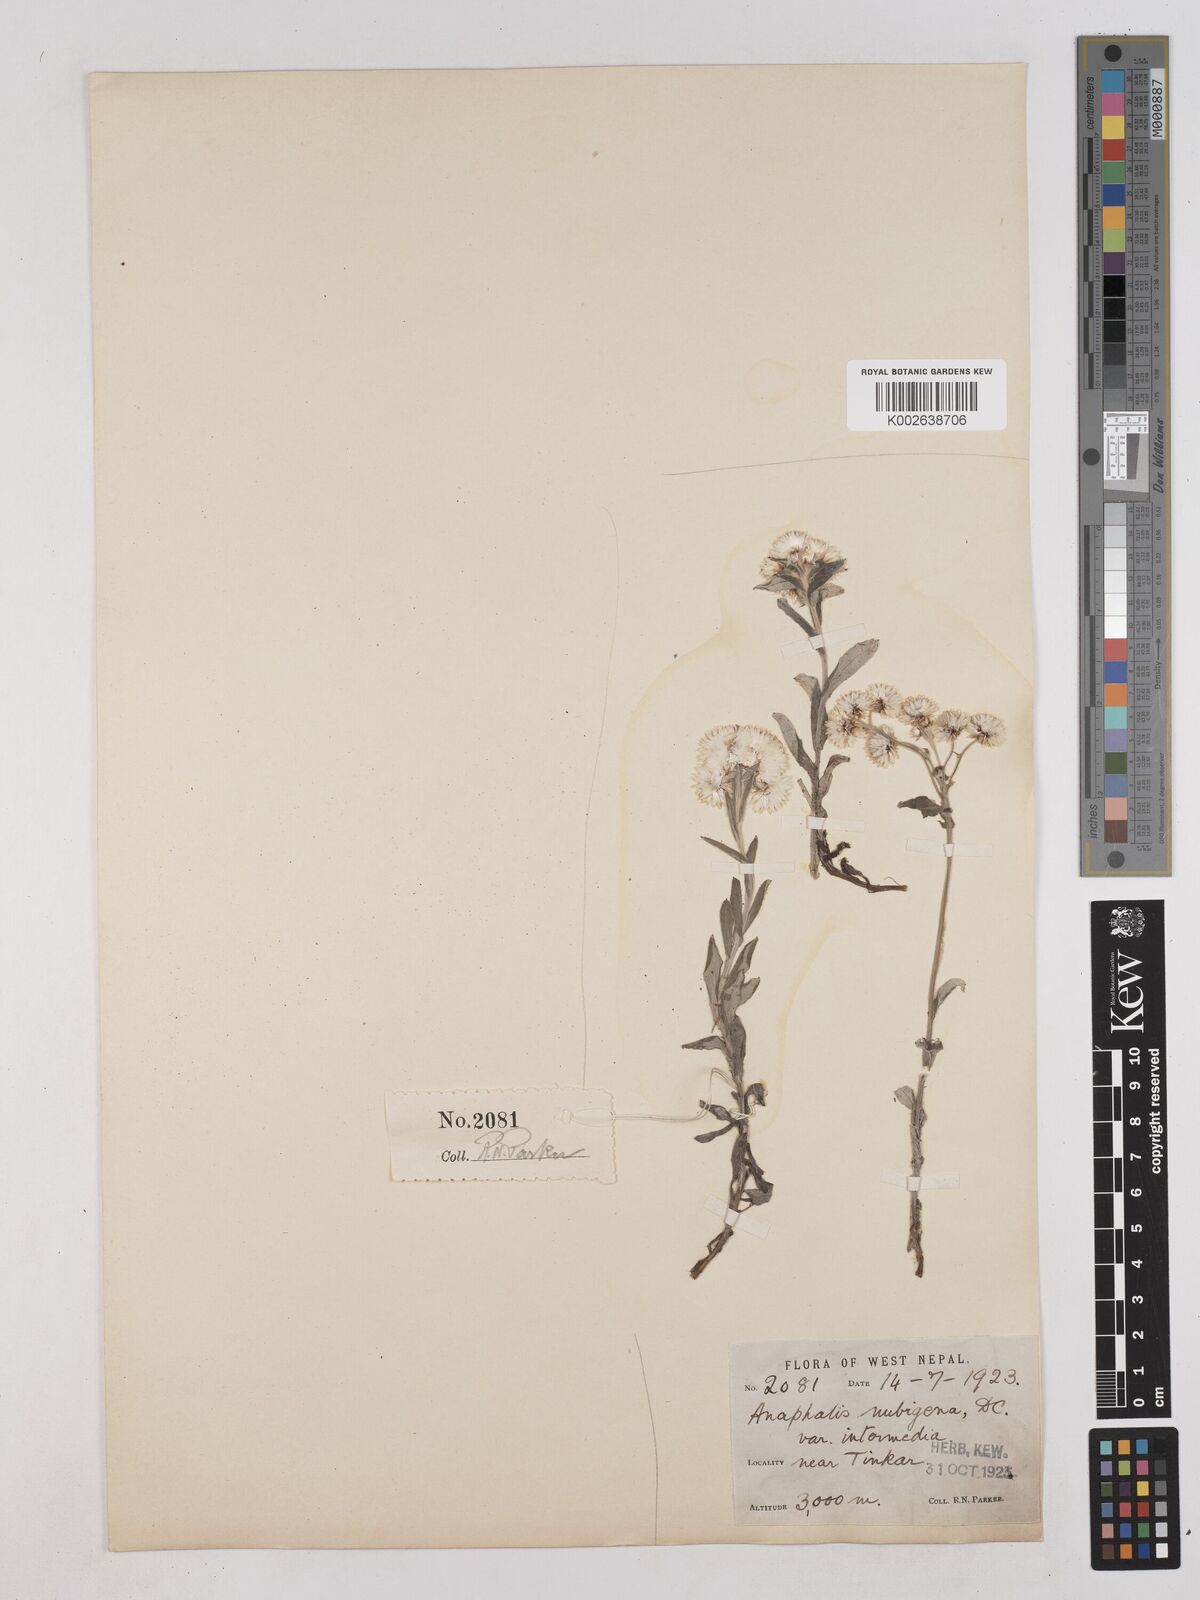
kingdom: Plantae
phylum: Tracheophyta
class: Magnoliopsida
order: Asterales
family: Asteraceae
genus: Anaphalis
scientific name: Anaphalis
